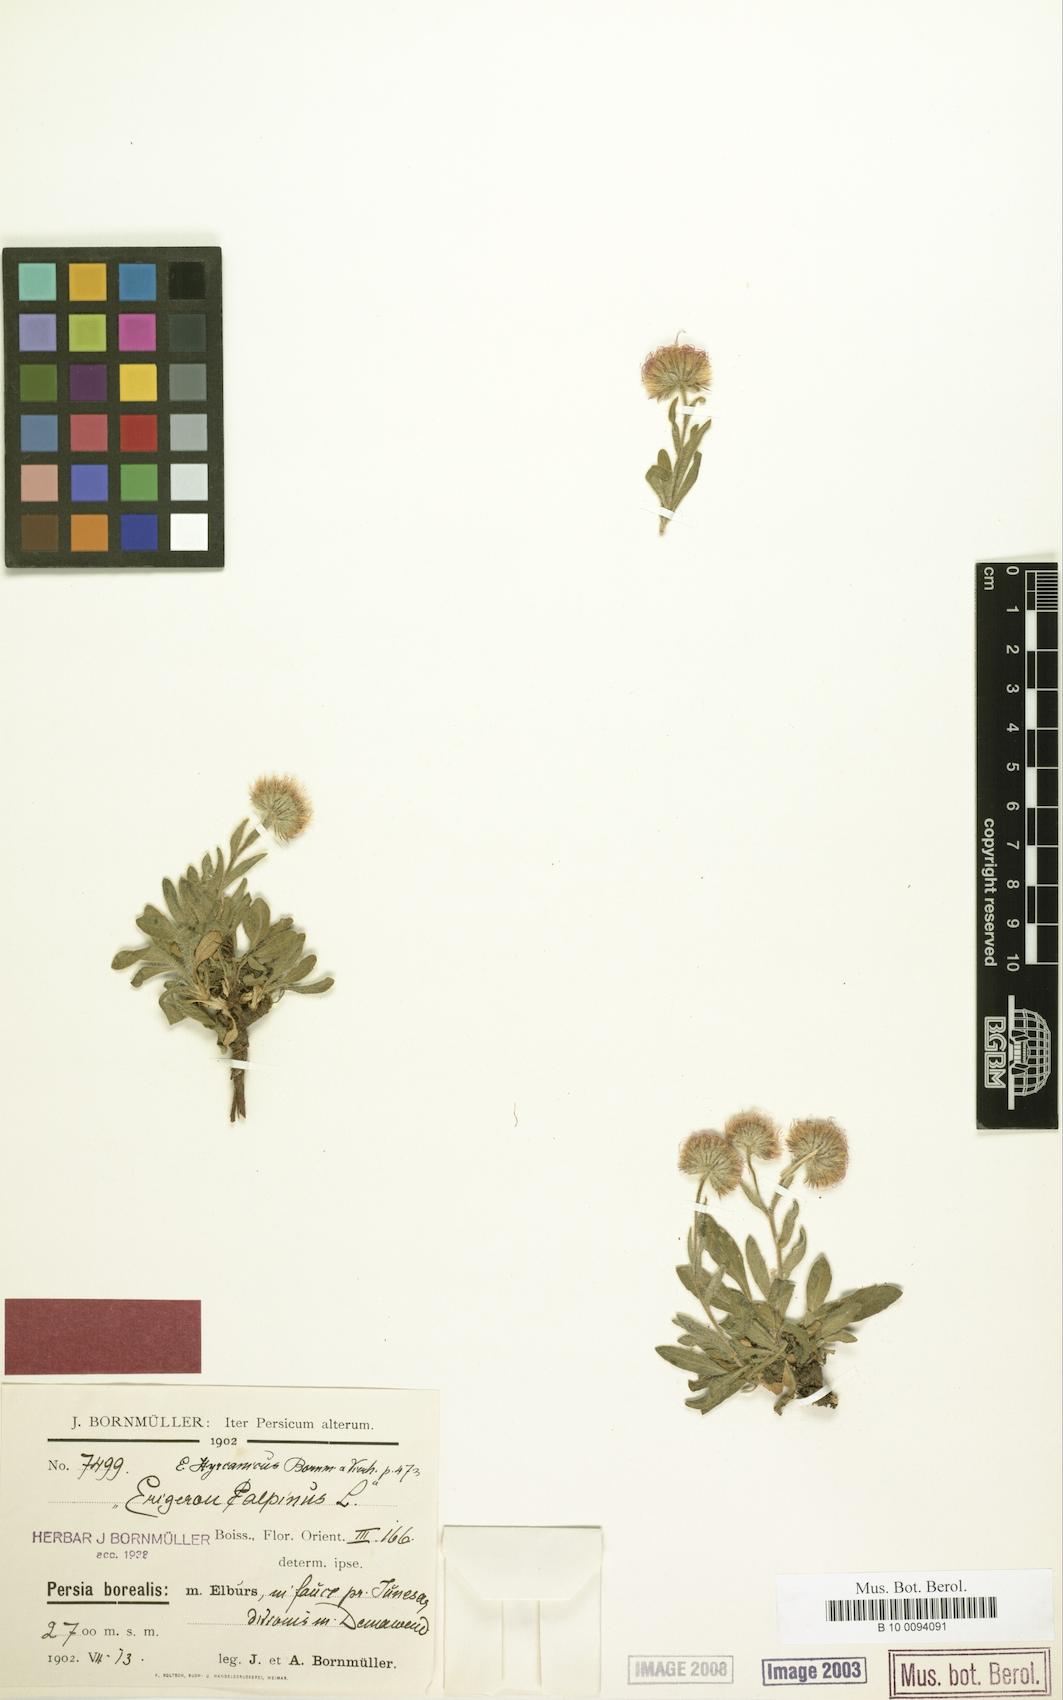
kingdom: Plantae
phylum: Tracheophyta
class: Magnoliopsida
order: Asterales
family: Asteraceae
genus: Erigeron
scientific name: Erigeron hyrcanicus
